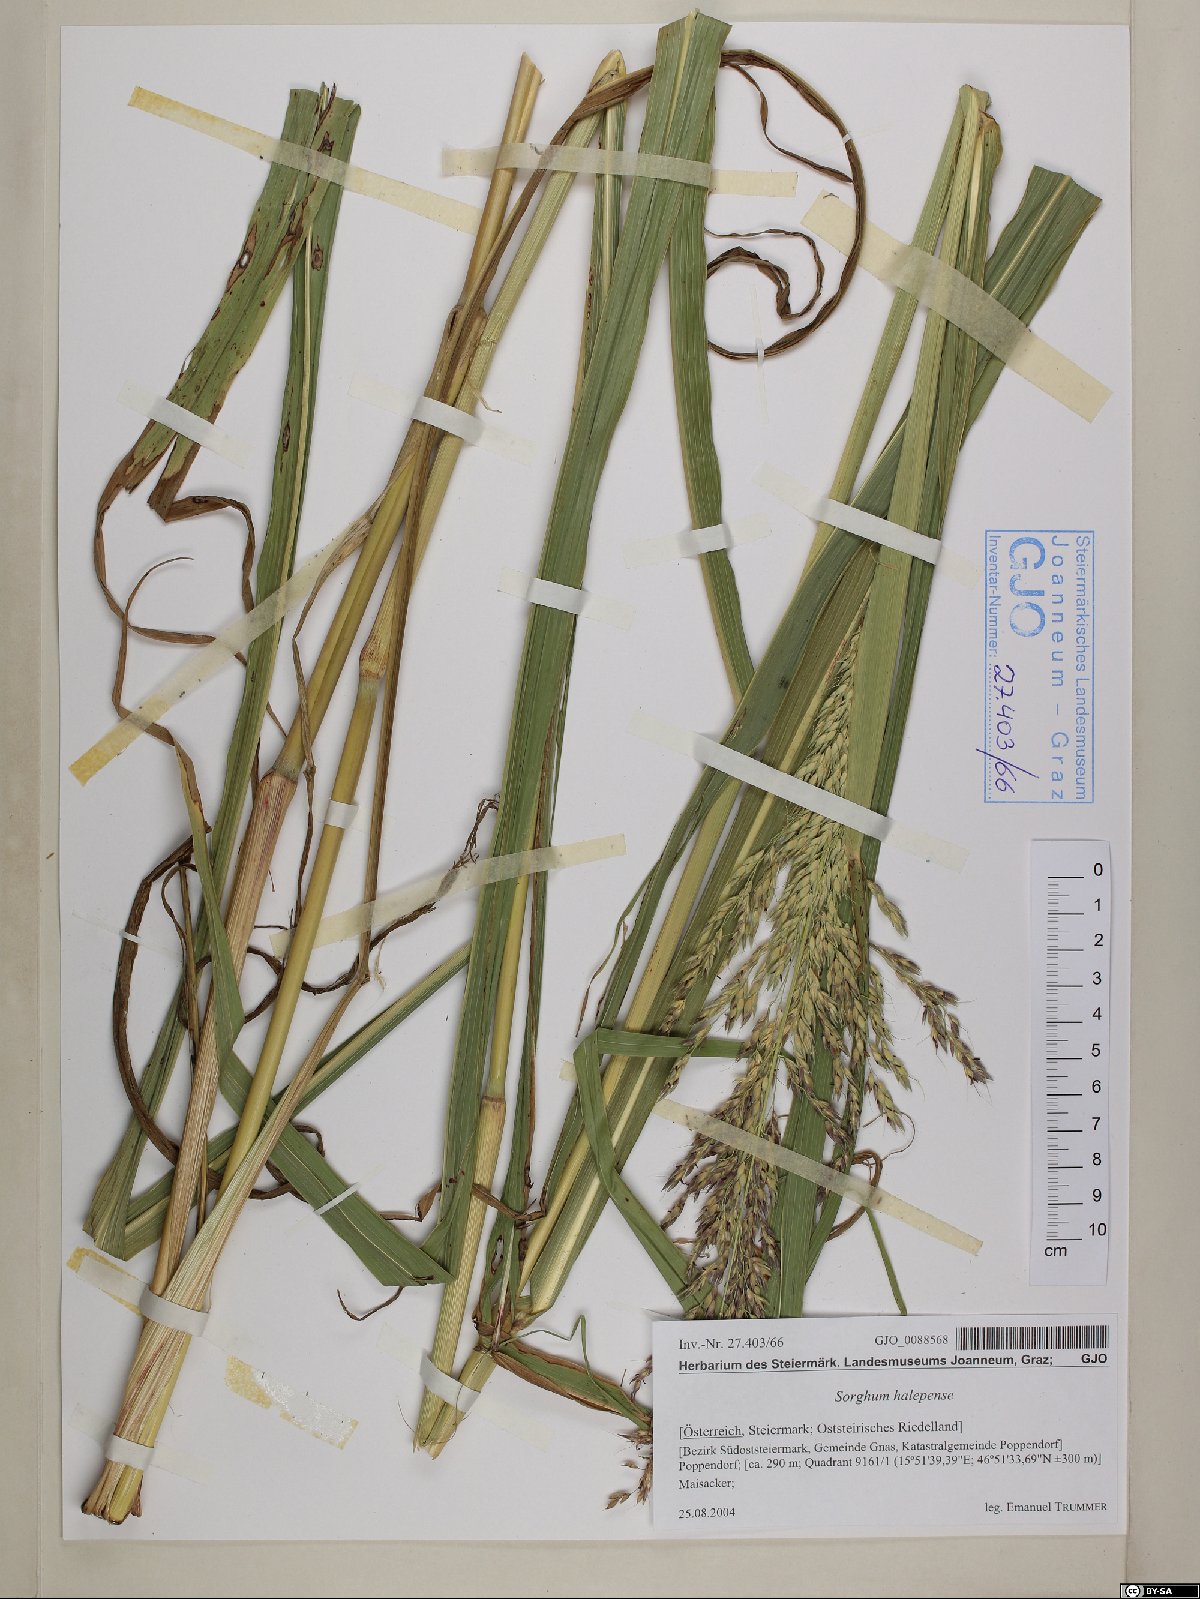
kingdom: Plantae
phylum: Tracheophyta
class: Liliopsida
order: Poales
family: Poaceae
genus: Sorghum
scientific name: Sorghum halepense
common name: Johnson-grass
